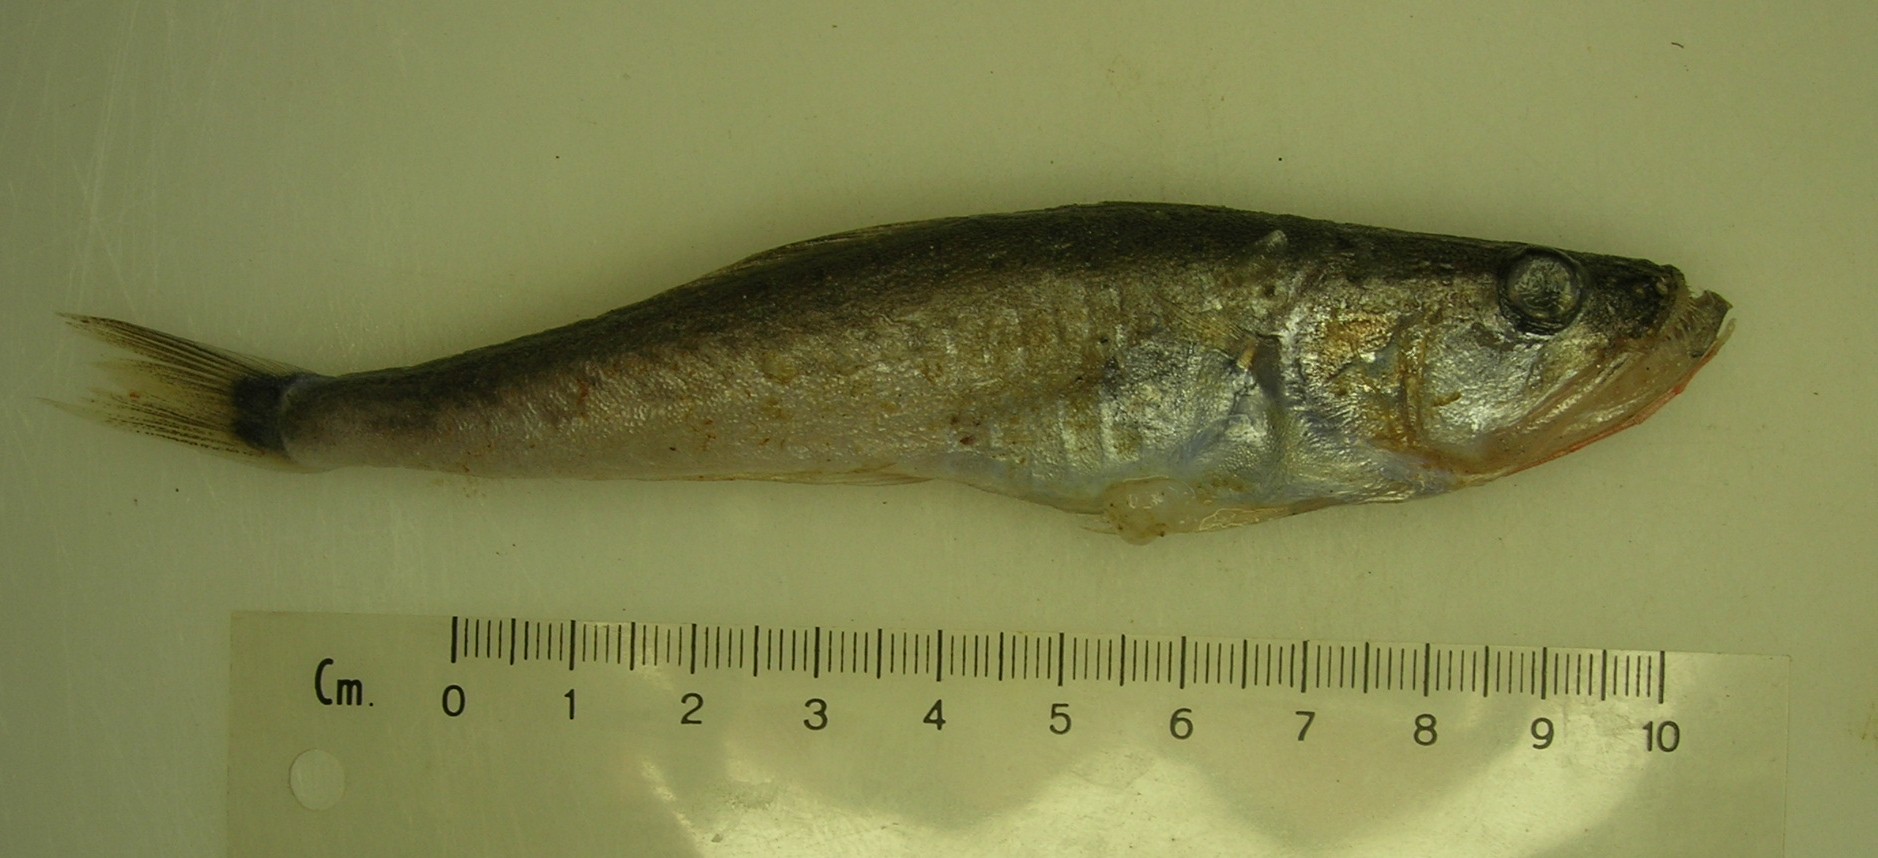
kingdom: Animalia
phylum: Chordata
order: Perciformes
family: Champsodontidae
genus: Champsodon
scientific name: Champsodon capensis
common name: Gaper
